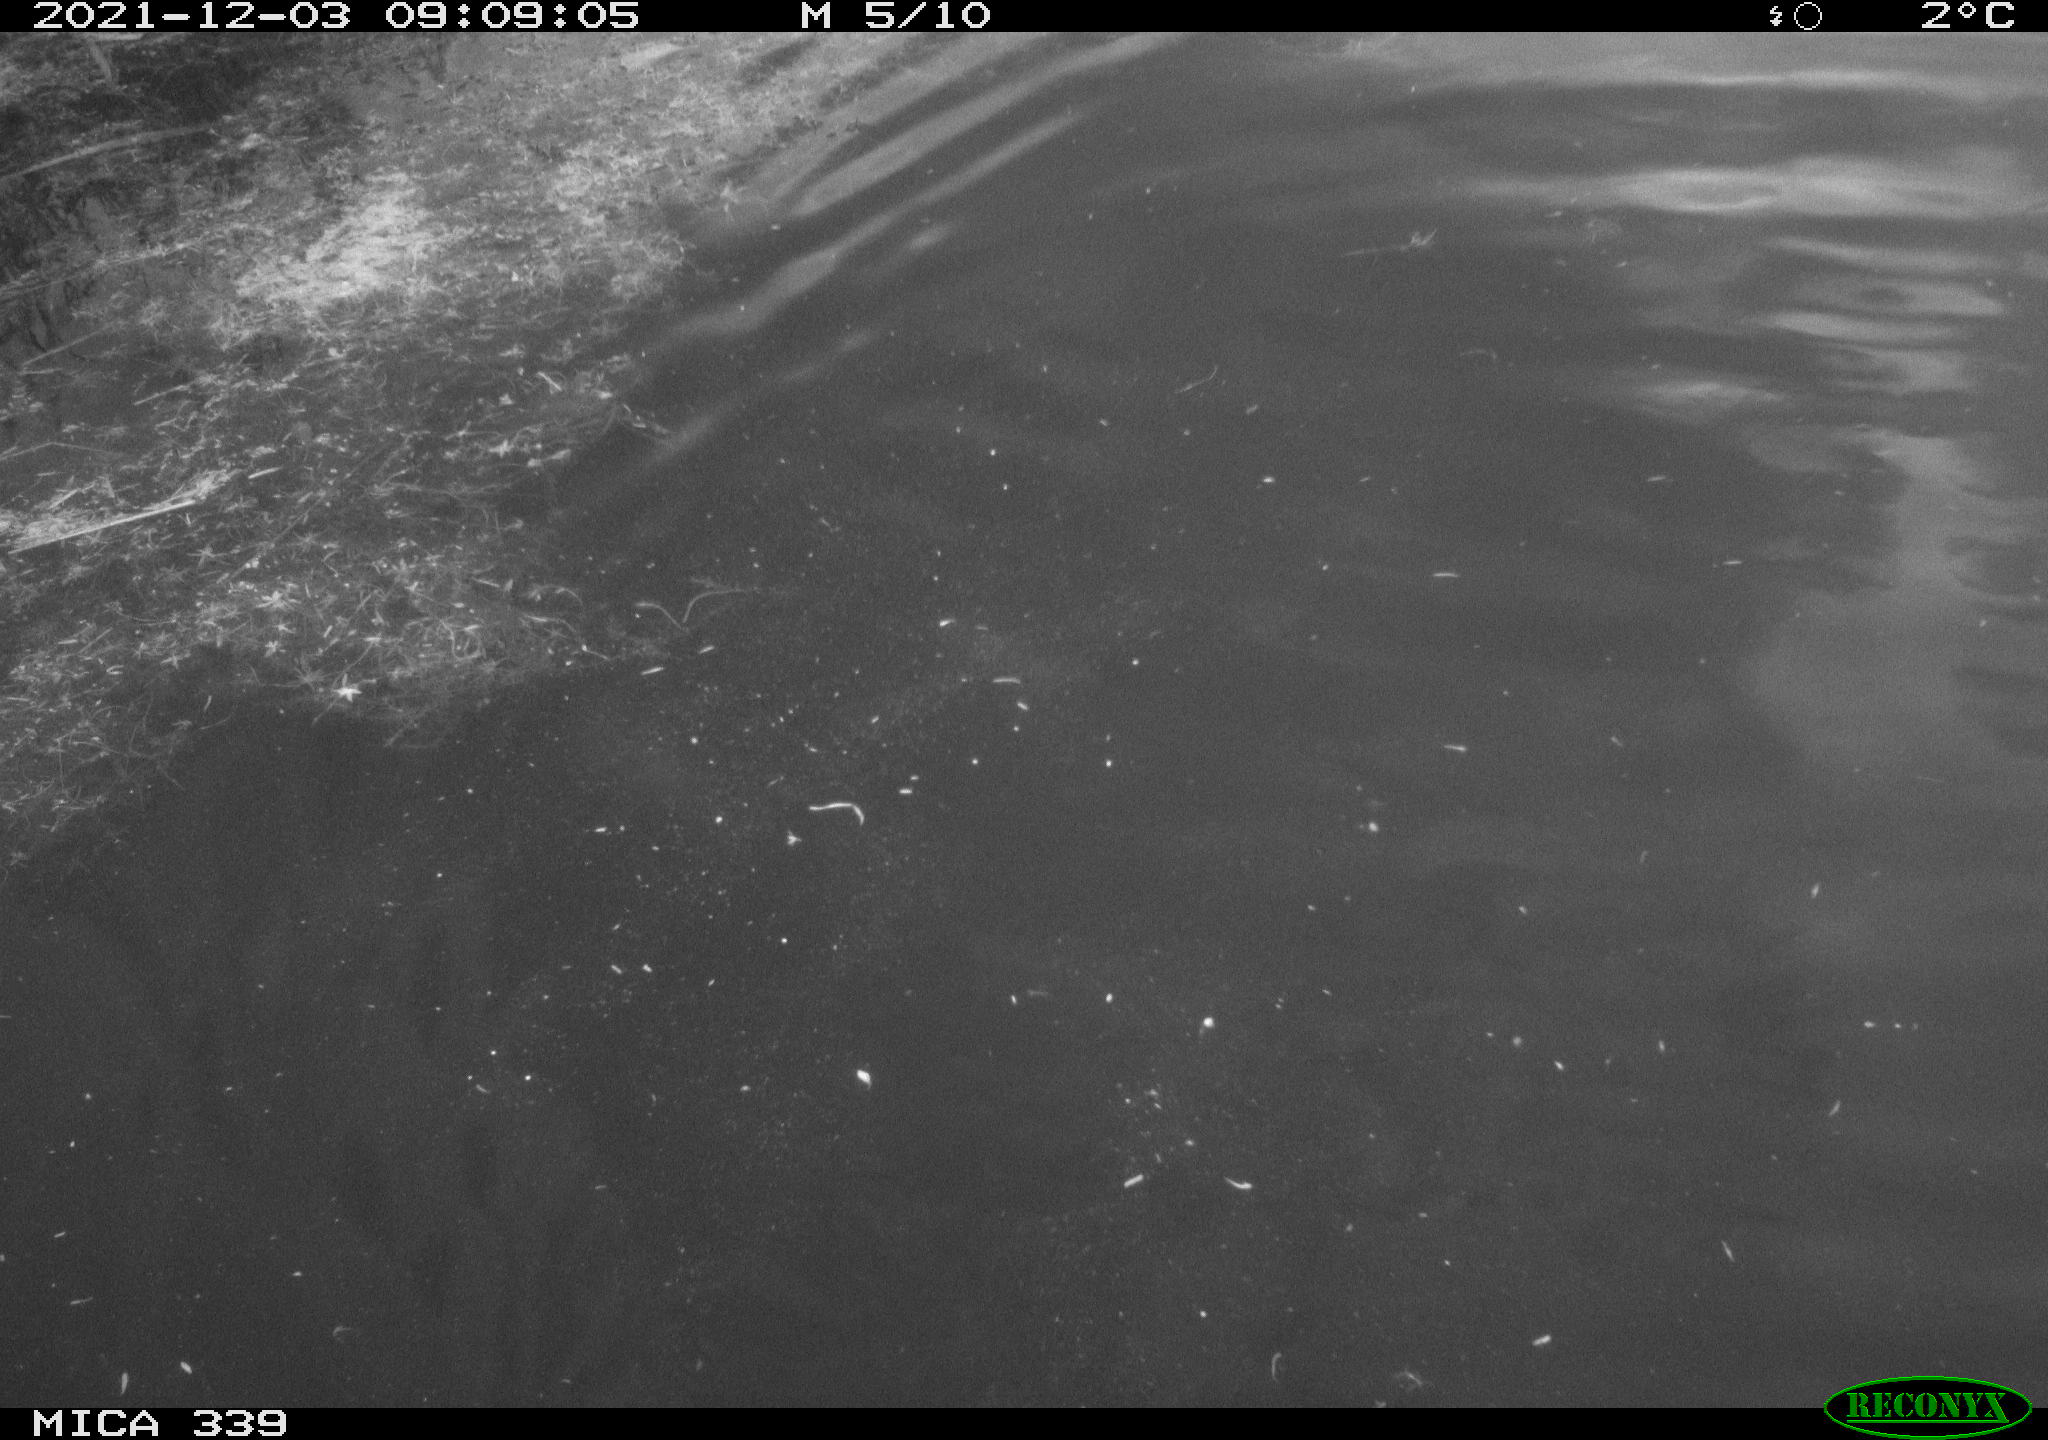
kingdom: Animalia
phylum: Chordata
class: Aves
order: Suliformes
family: Phalacrocoracidae
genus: Phalacrocorax
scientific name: Phalacrocorax carbo
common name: Great cormorant
